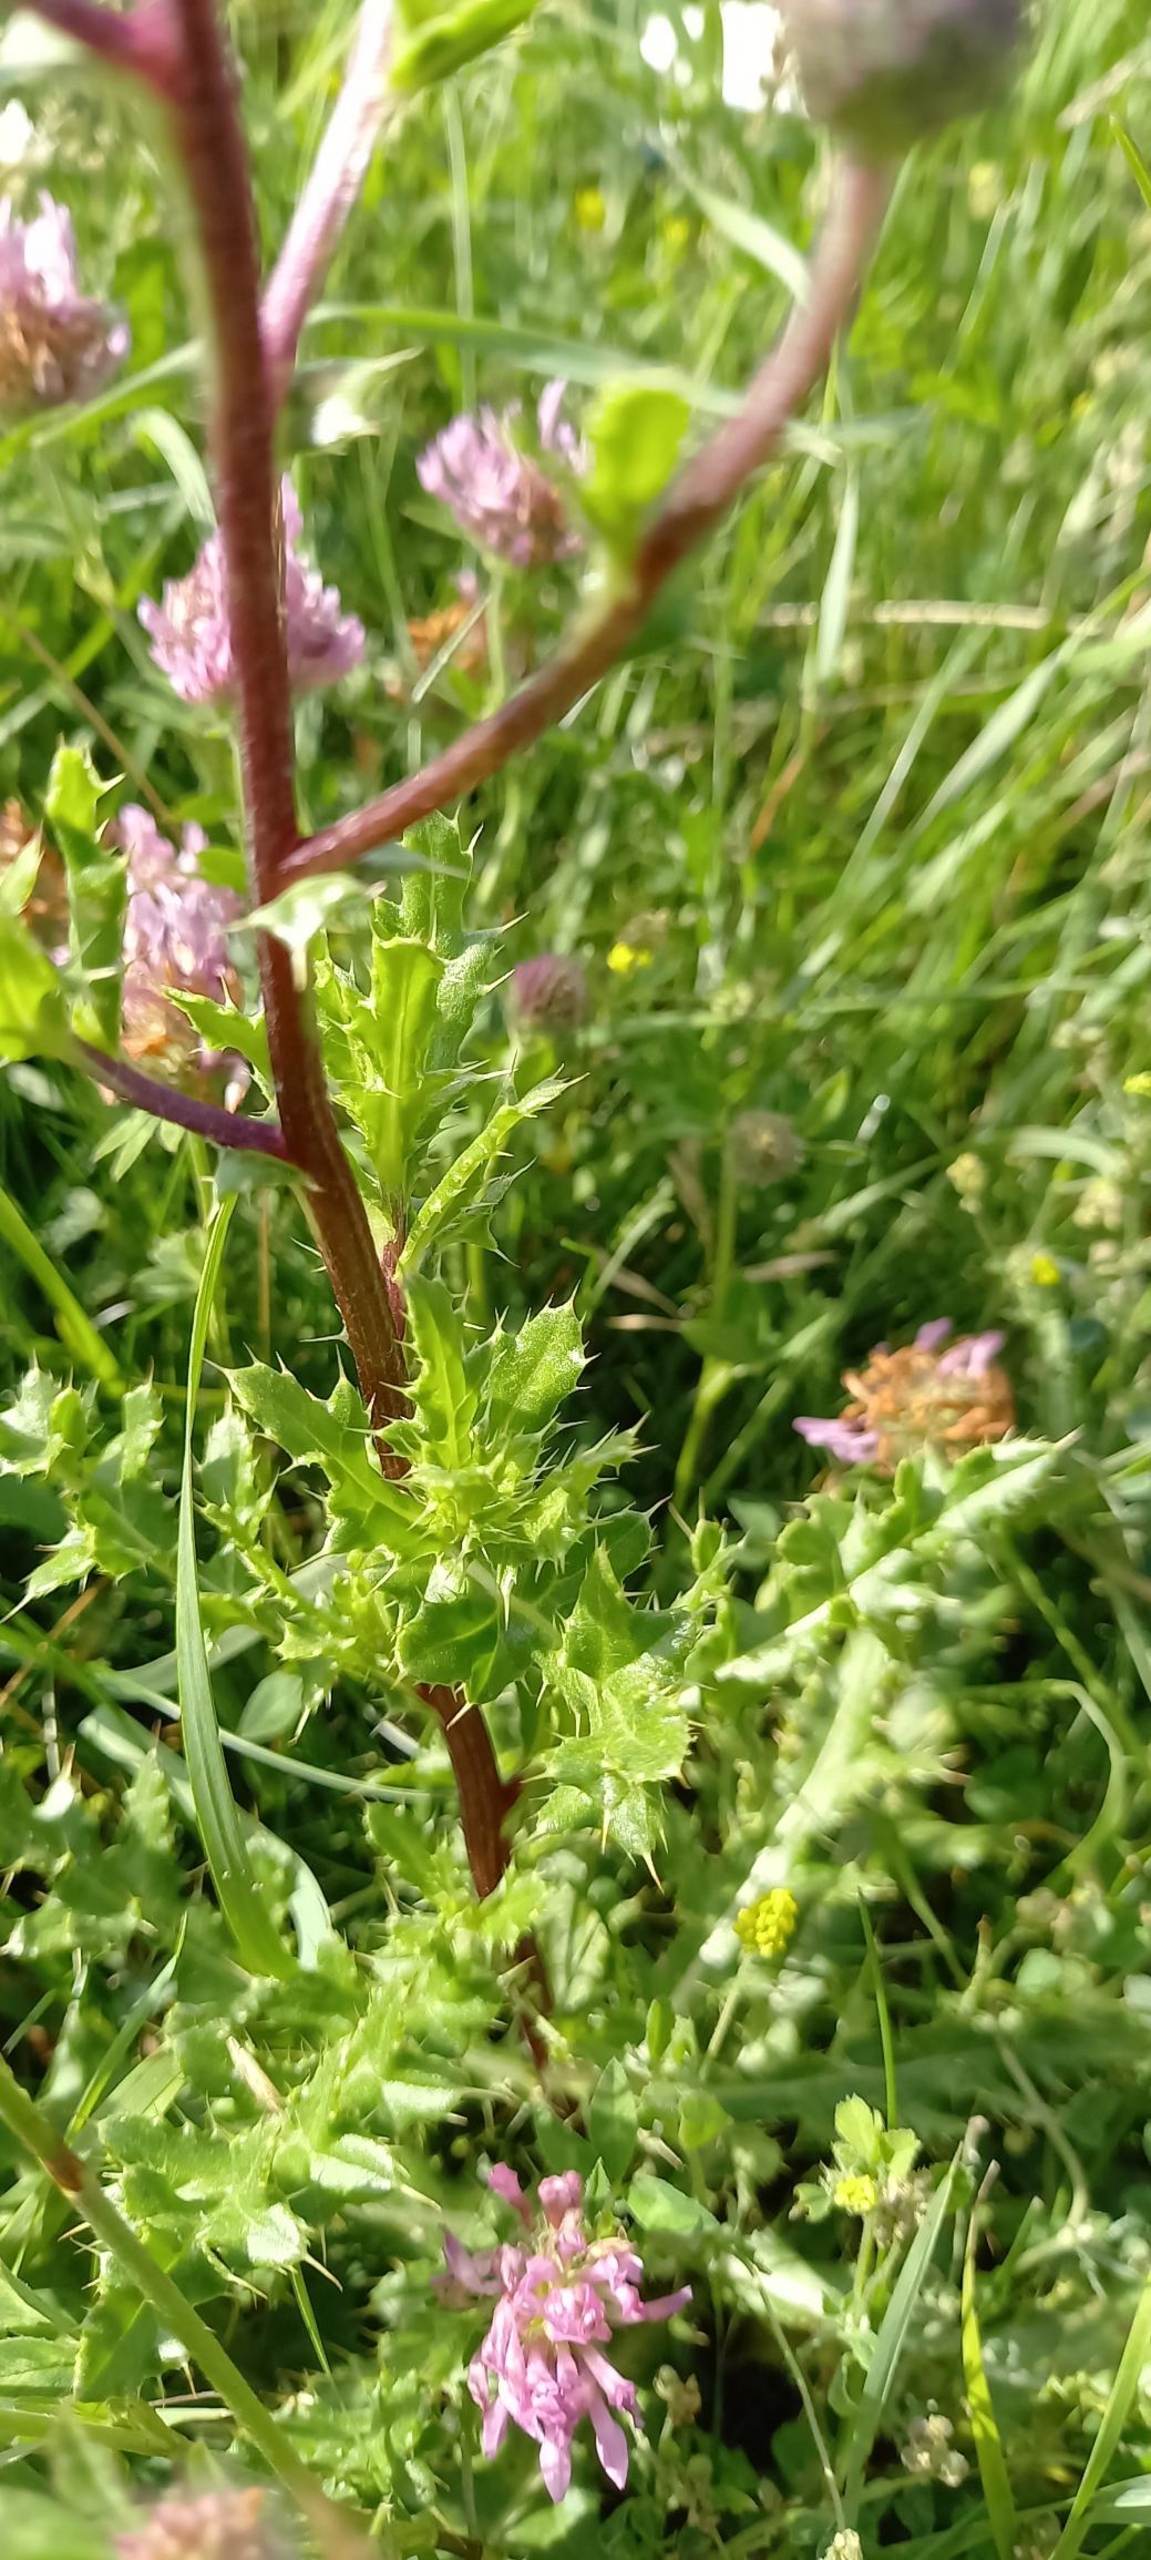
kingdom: Plantae
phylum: Tracheophyta
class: Magnoliopsida
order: Asterales
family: Asteraceae
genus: Cirsium
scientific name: Cirsium arvense
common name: Ager-tidsel
